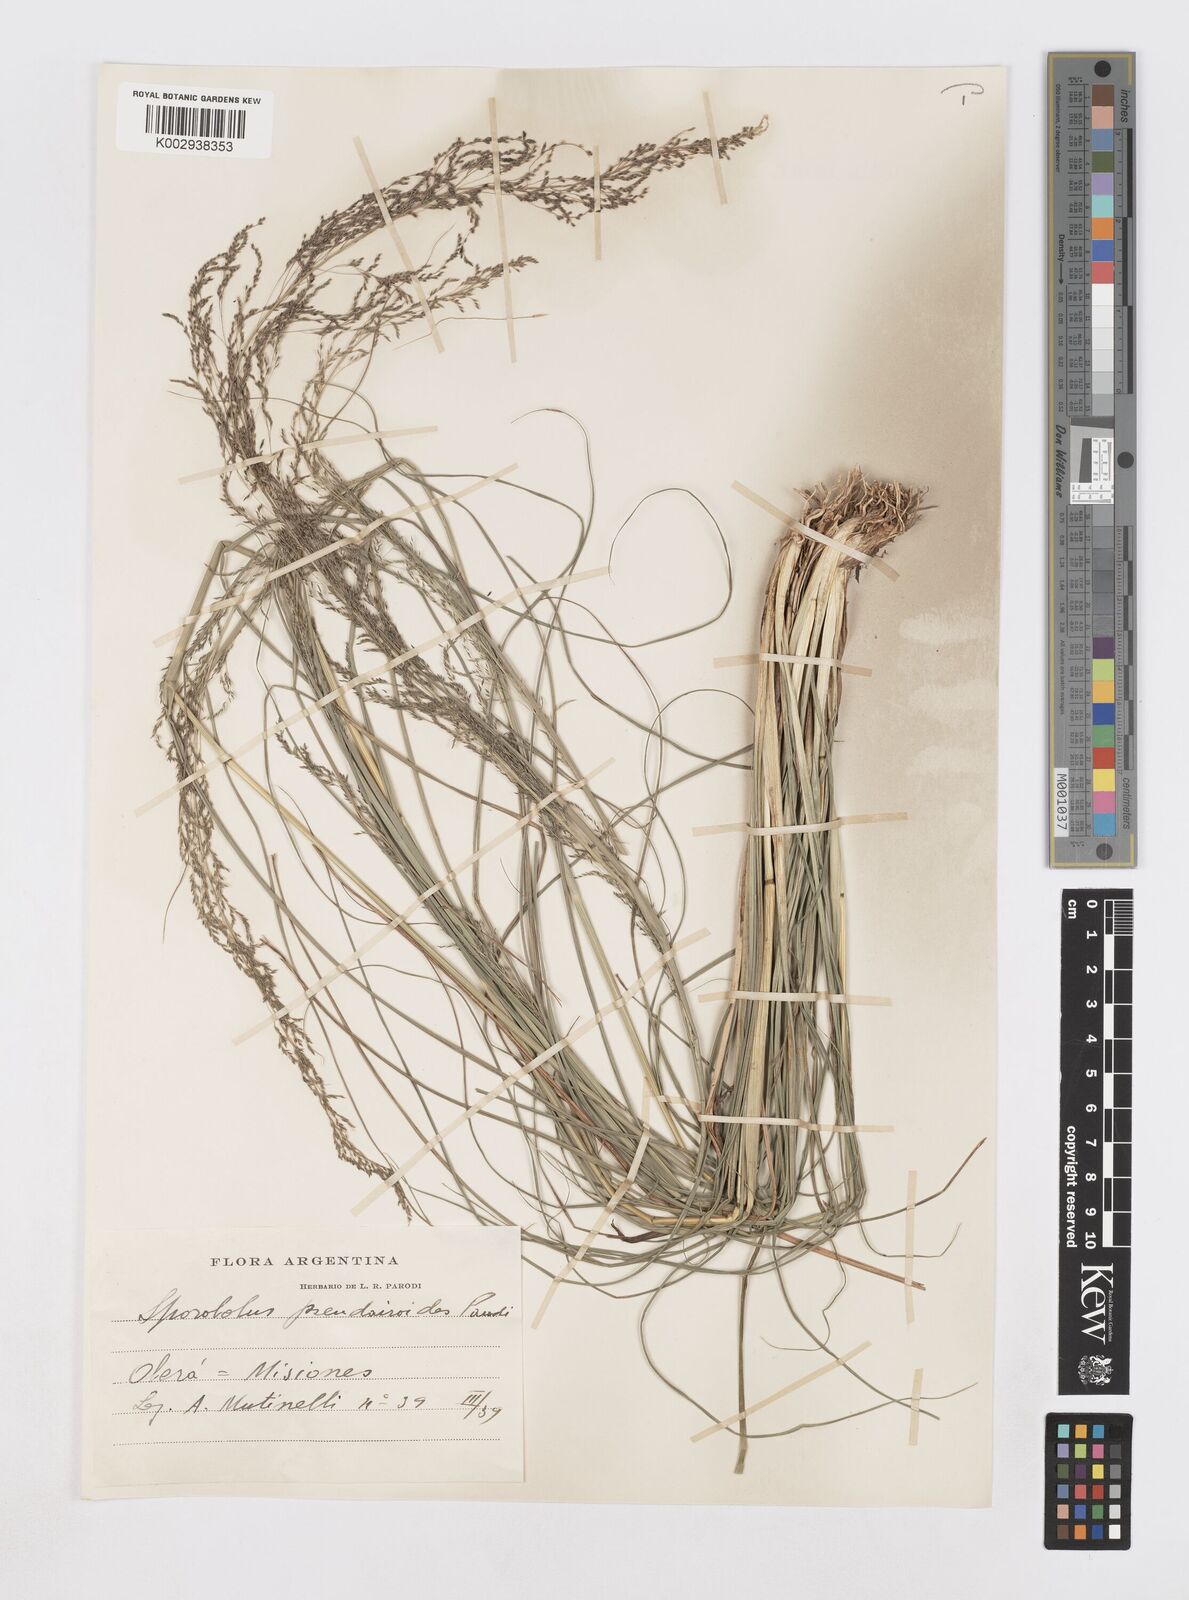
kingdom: Plantae
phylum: Tracheophyta
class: Liliopsida
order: Poales
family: Poaceae
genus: Sporobolus
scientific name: Sporobolus pseudairoides
